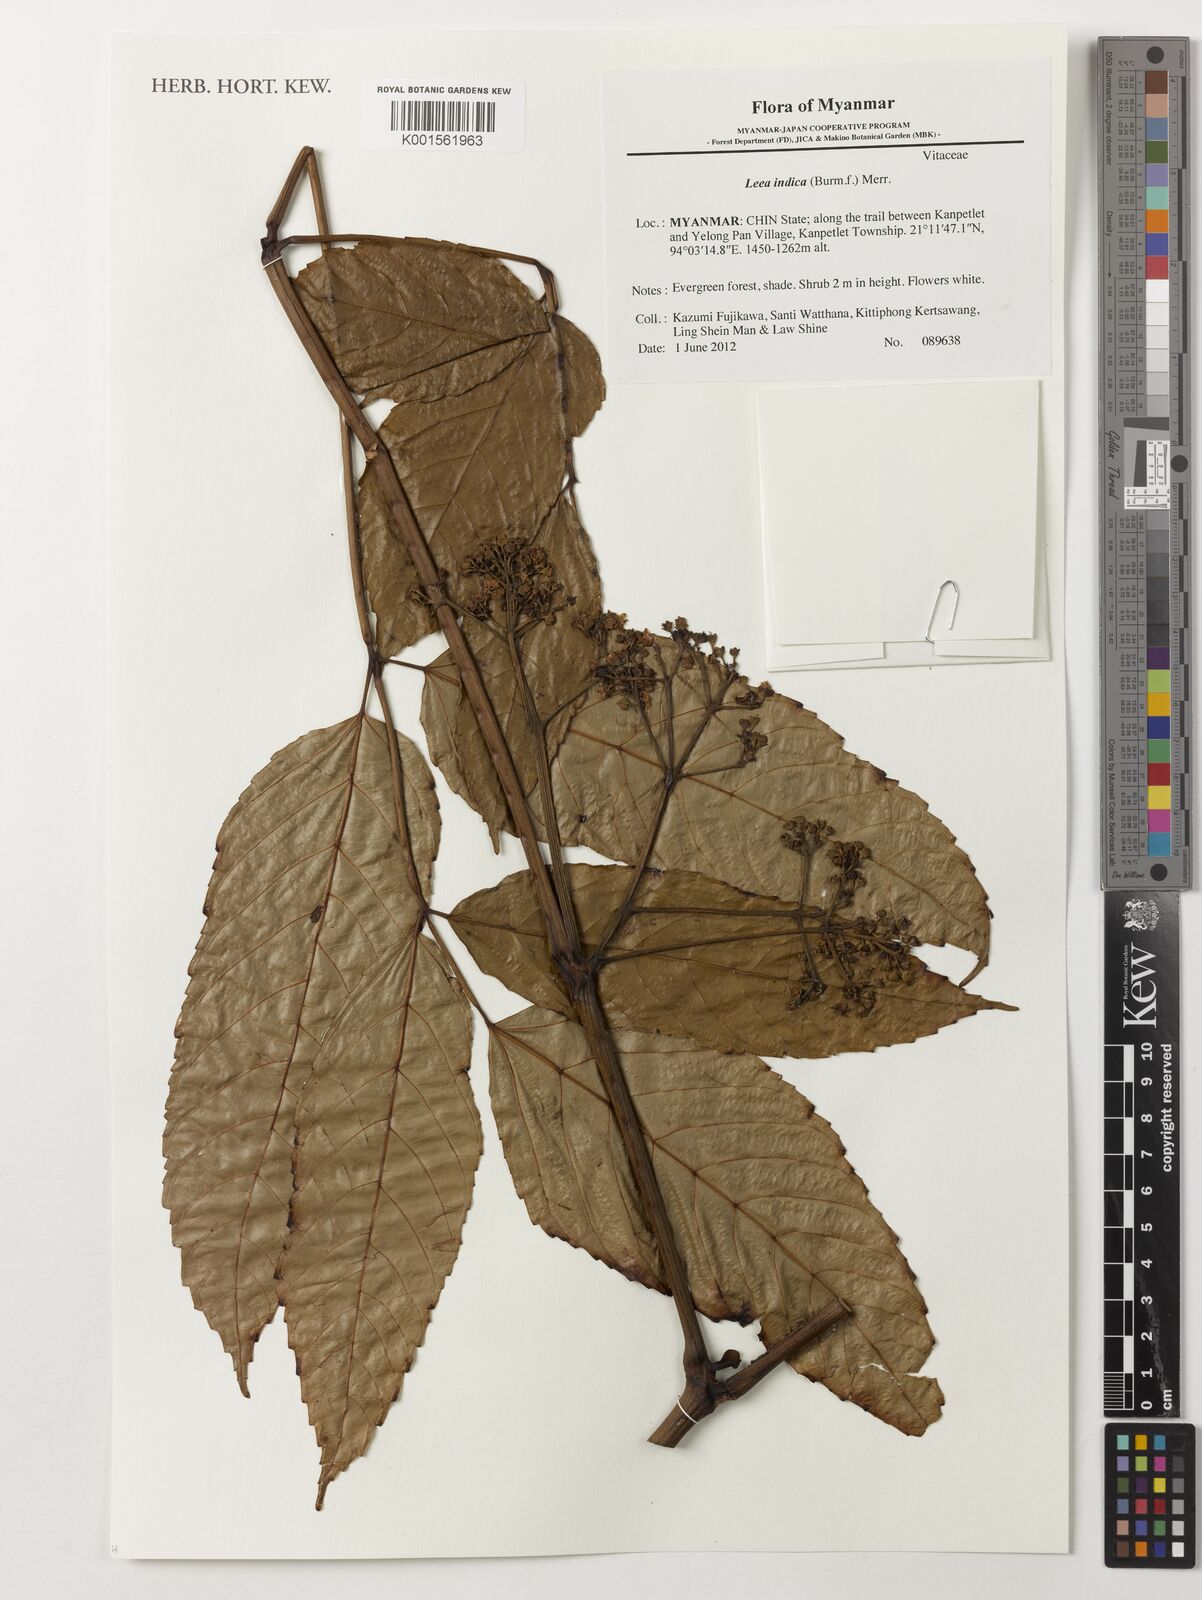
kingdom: Plantae
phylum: Tracheophyta
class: Magnoliopsida
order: Vitales
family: Vitaceae
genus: Leea
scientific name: Leea indica
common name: Bandicoot-berry
